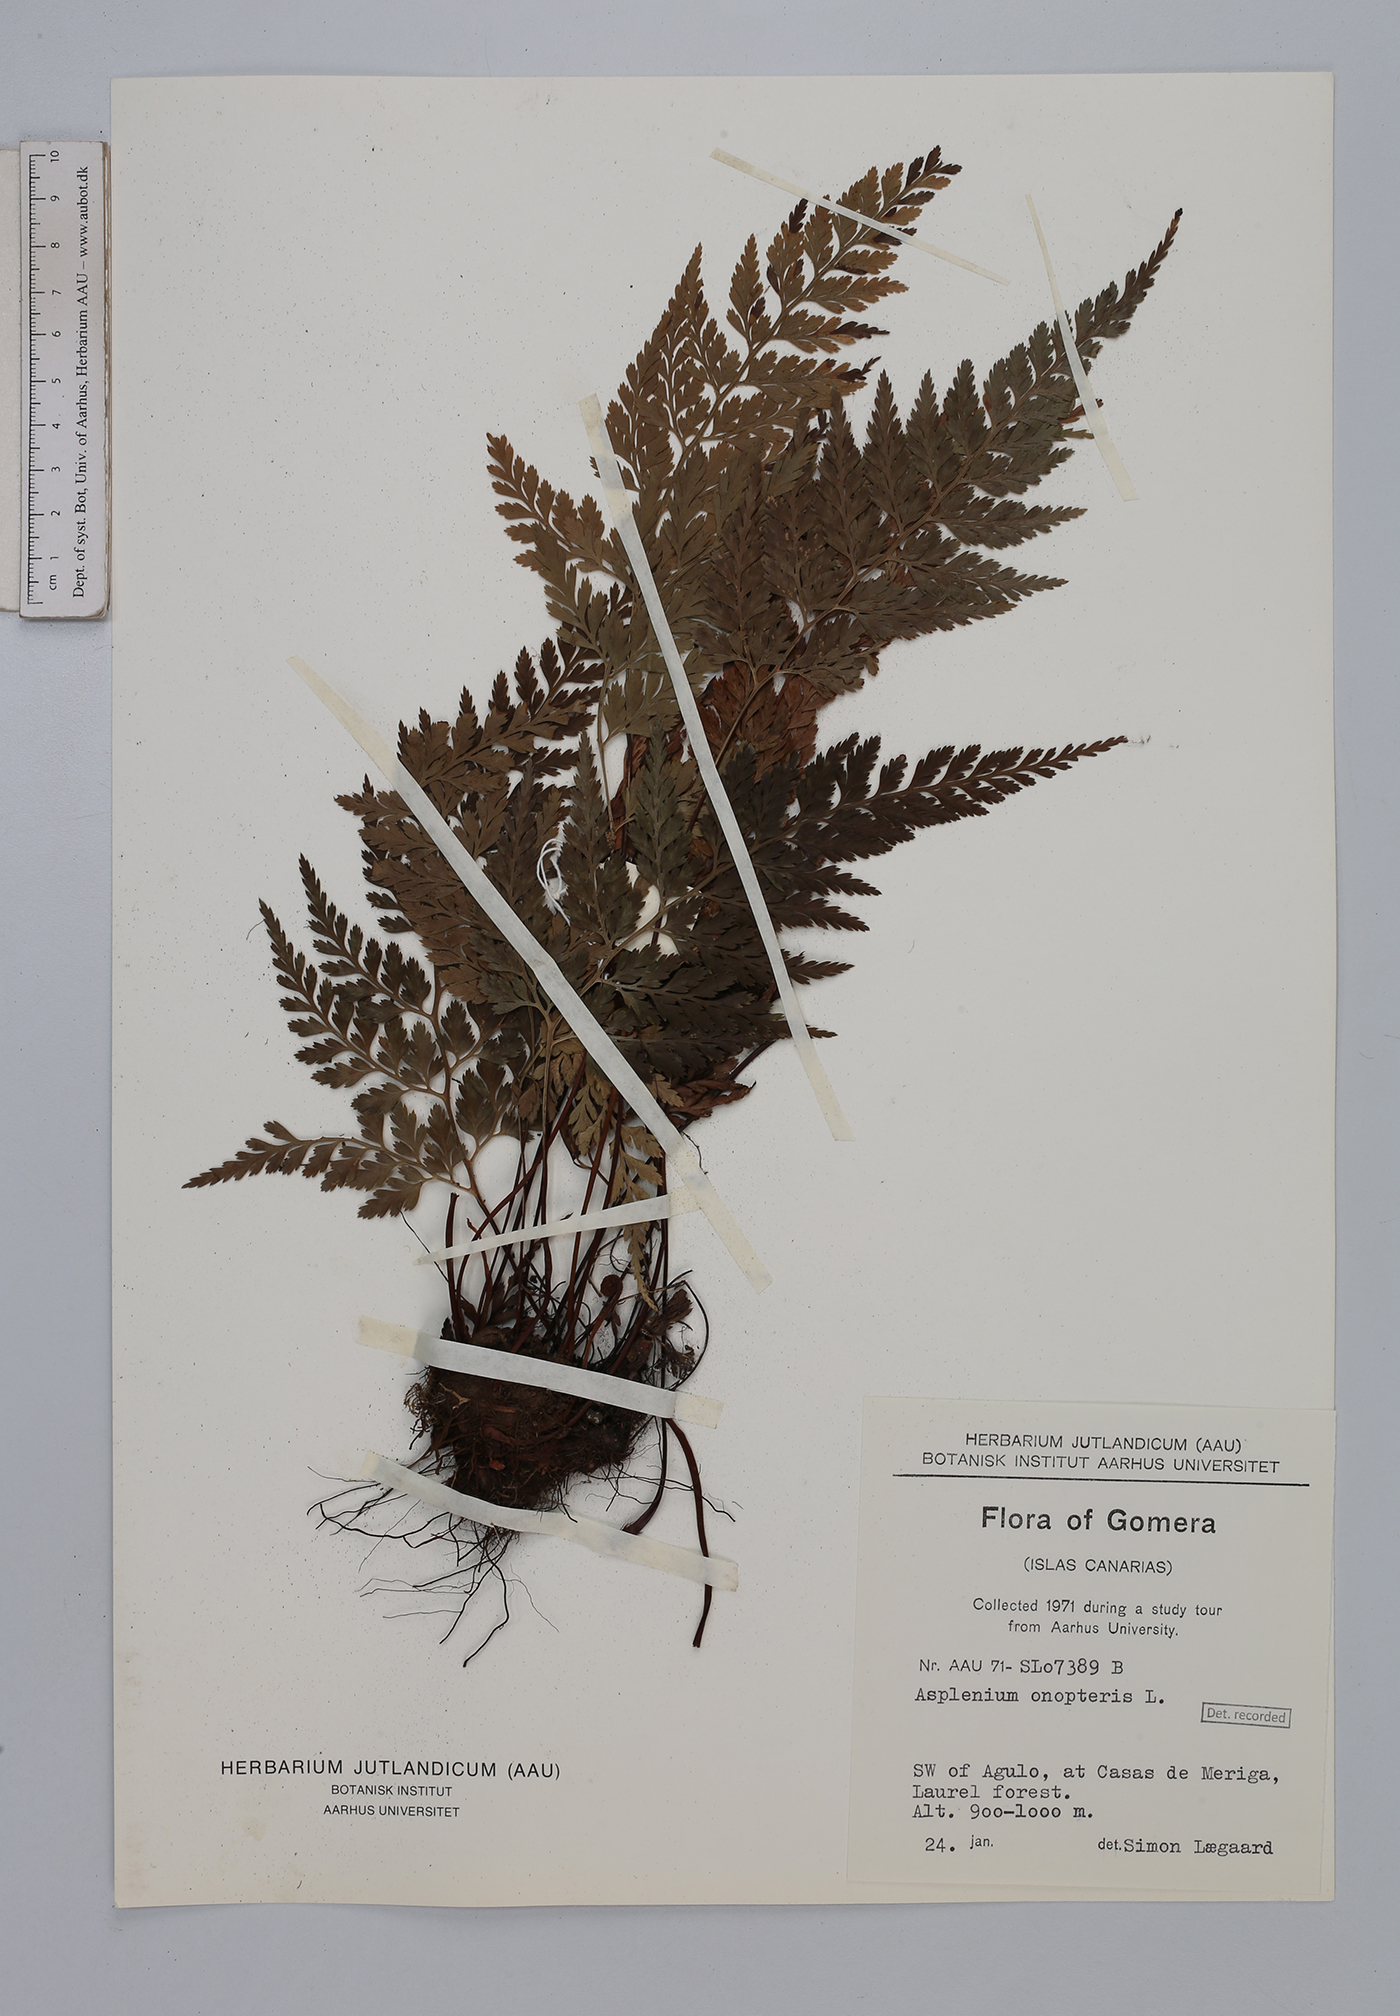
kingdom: Plantae
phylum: Tracheophyta
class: Polypodiopsida
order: Polypodiales
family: Aspleniaceae
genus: Asplenium
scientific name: Asplenium onopteris
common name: Irish spleenwort
